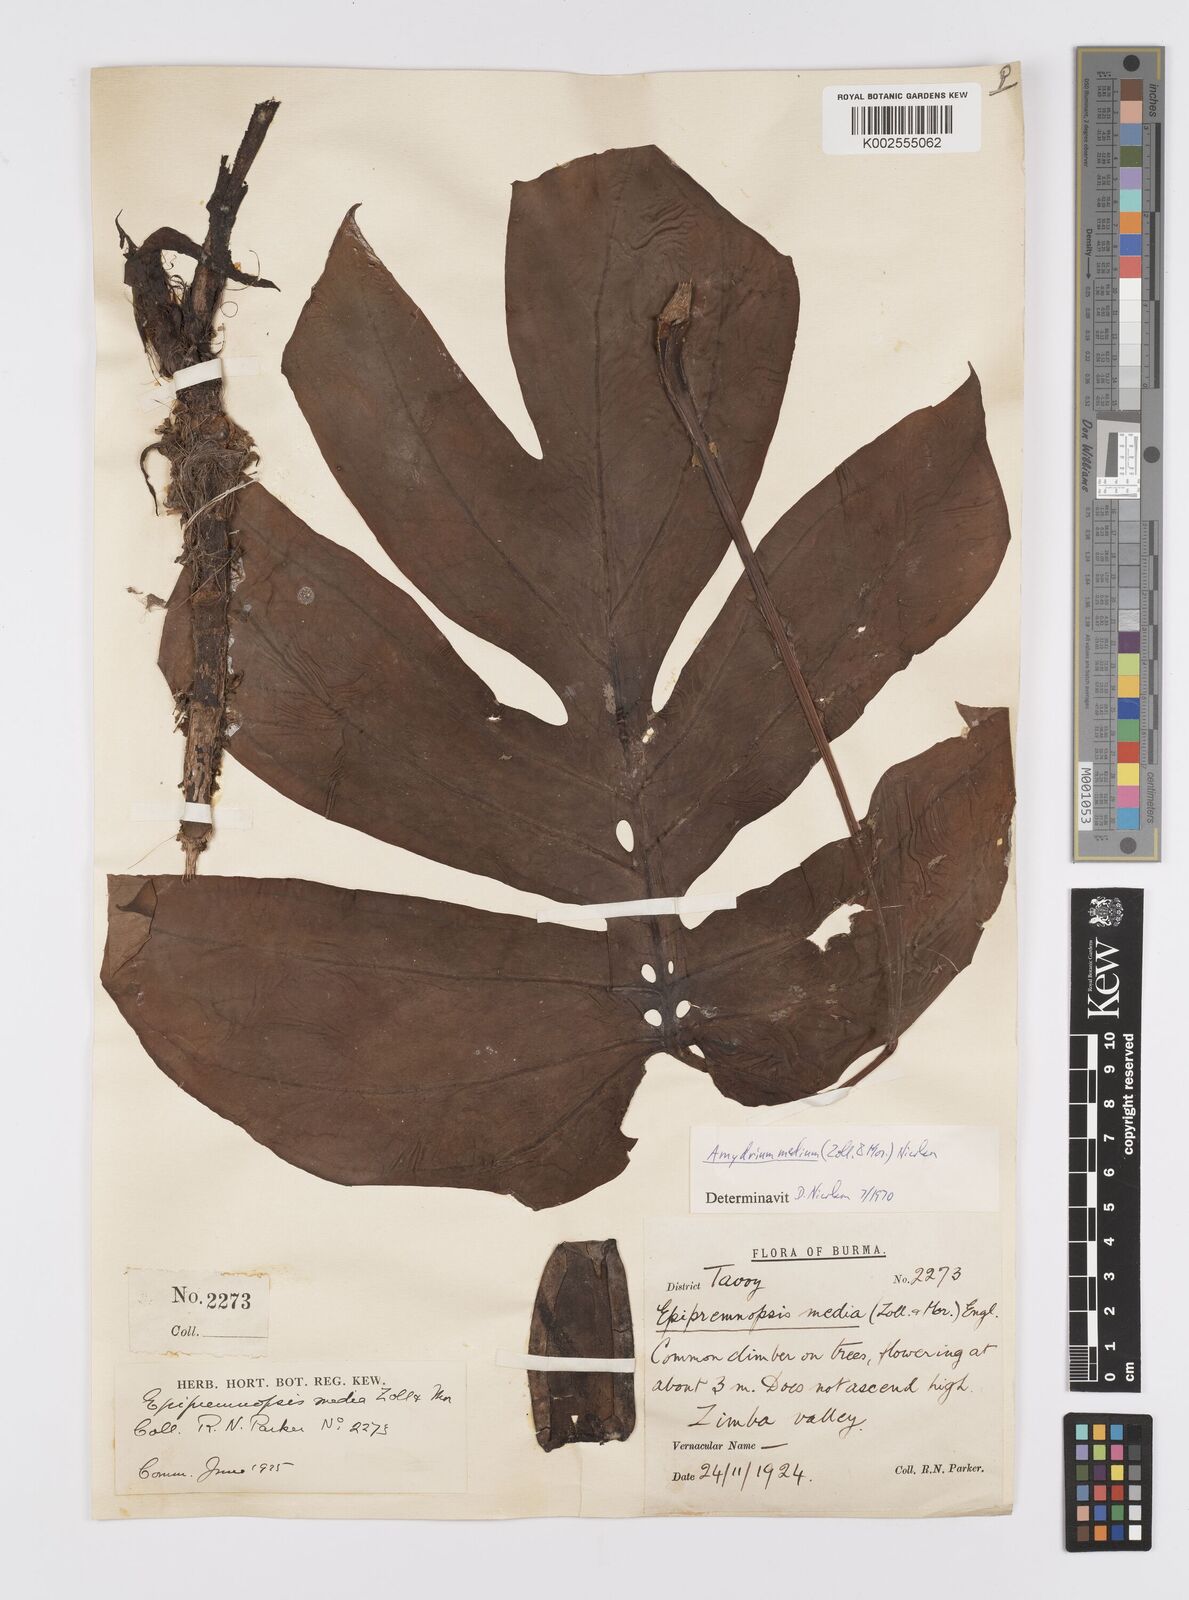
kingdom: Plantae
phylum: Tracheophyta
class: Liliopsida
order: Alismatales
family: Araceae
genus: Amydrium
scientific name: Amydrium medium
